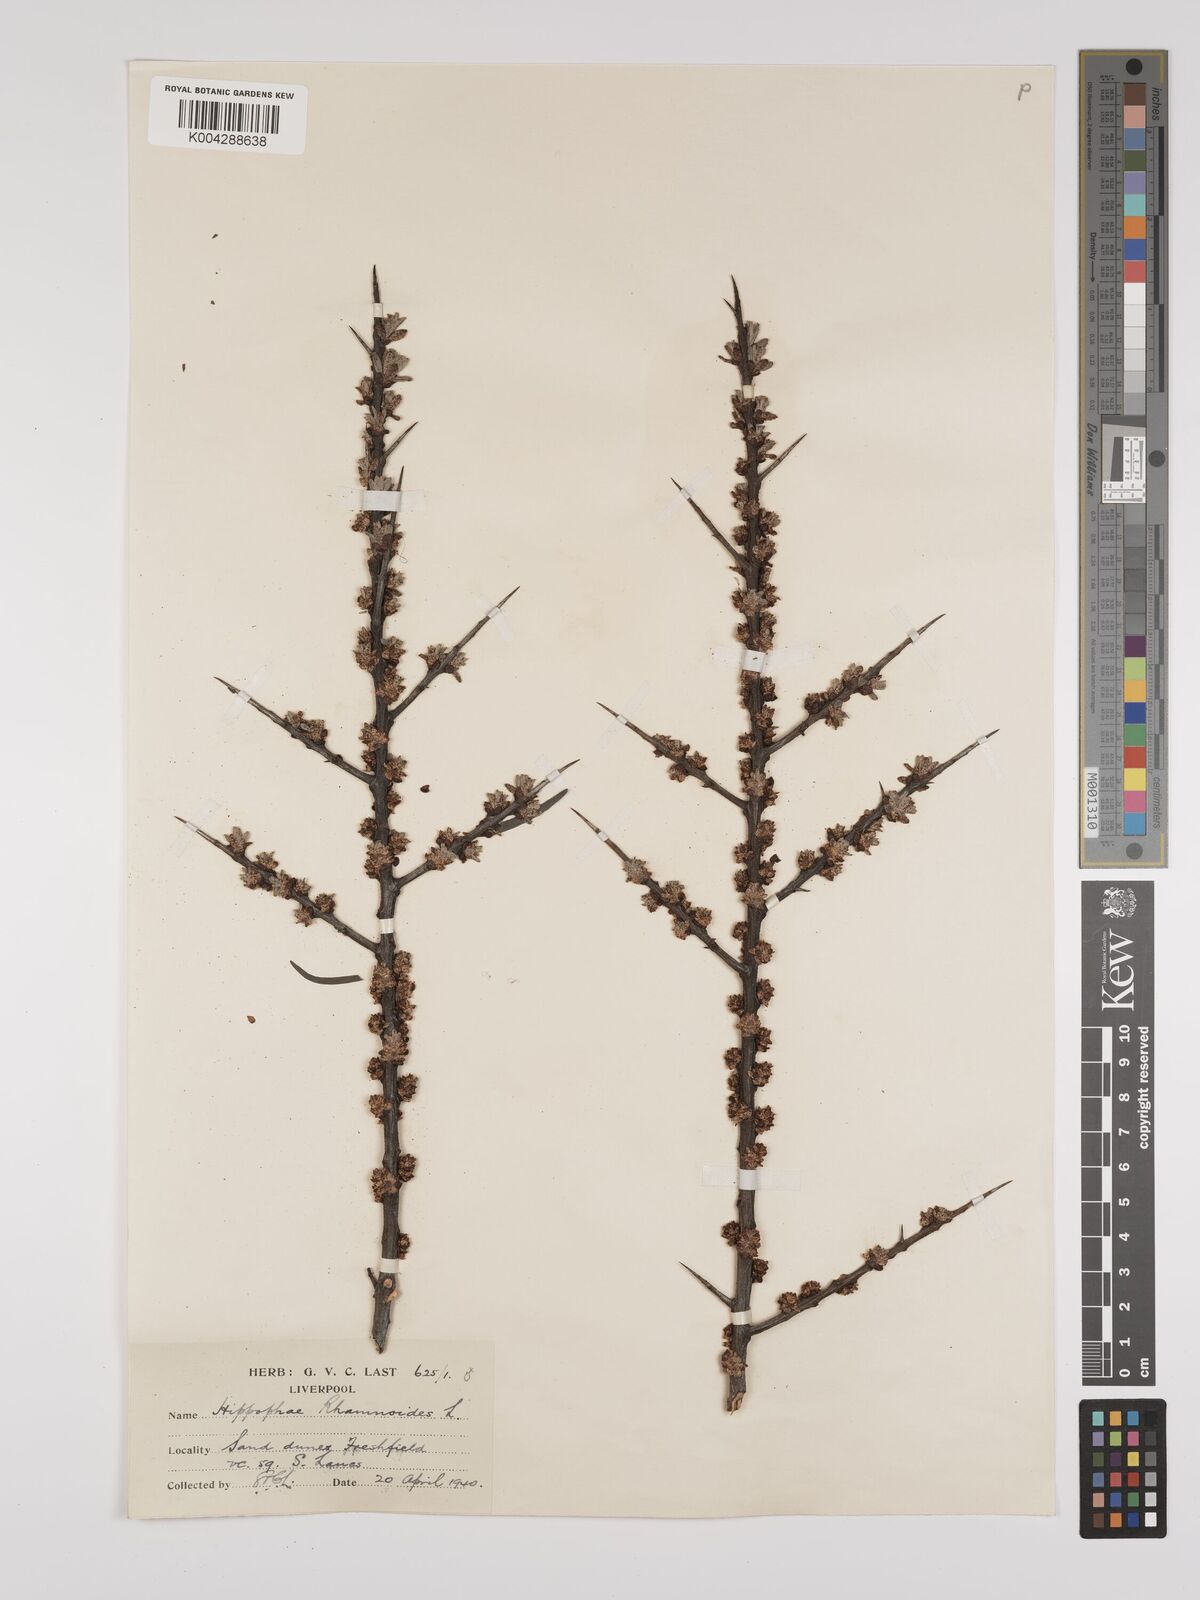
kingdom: Plantae
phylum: Tracheophyta
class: Magnoliopsida
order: Rosales
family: Elaeagnaceae
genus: Hippophae
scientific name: Hippophae rhamnoides
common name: Sea-buckthorn
